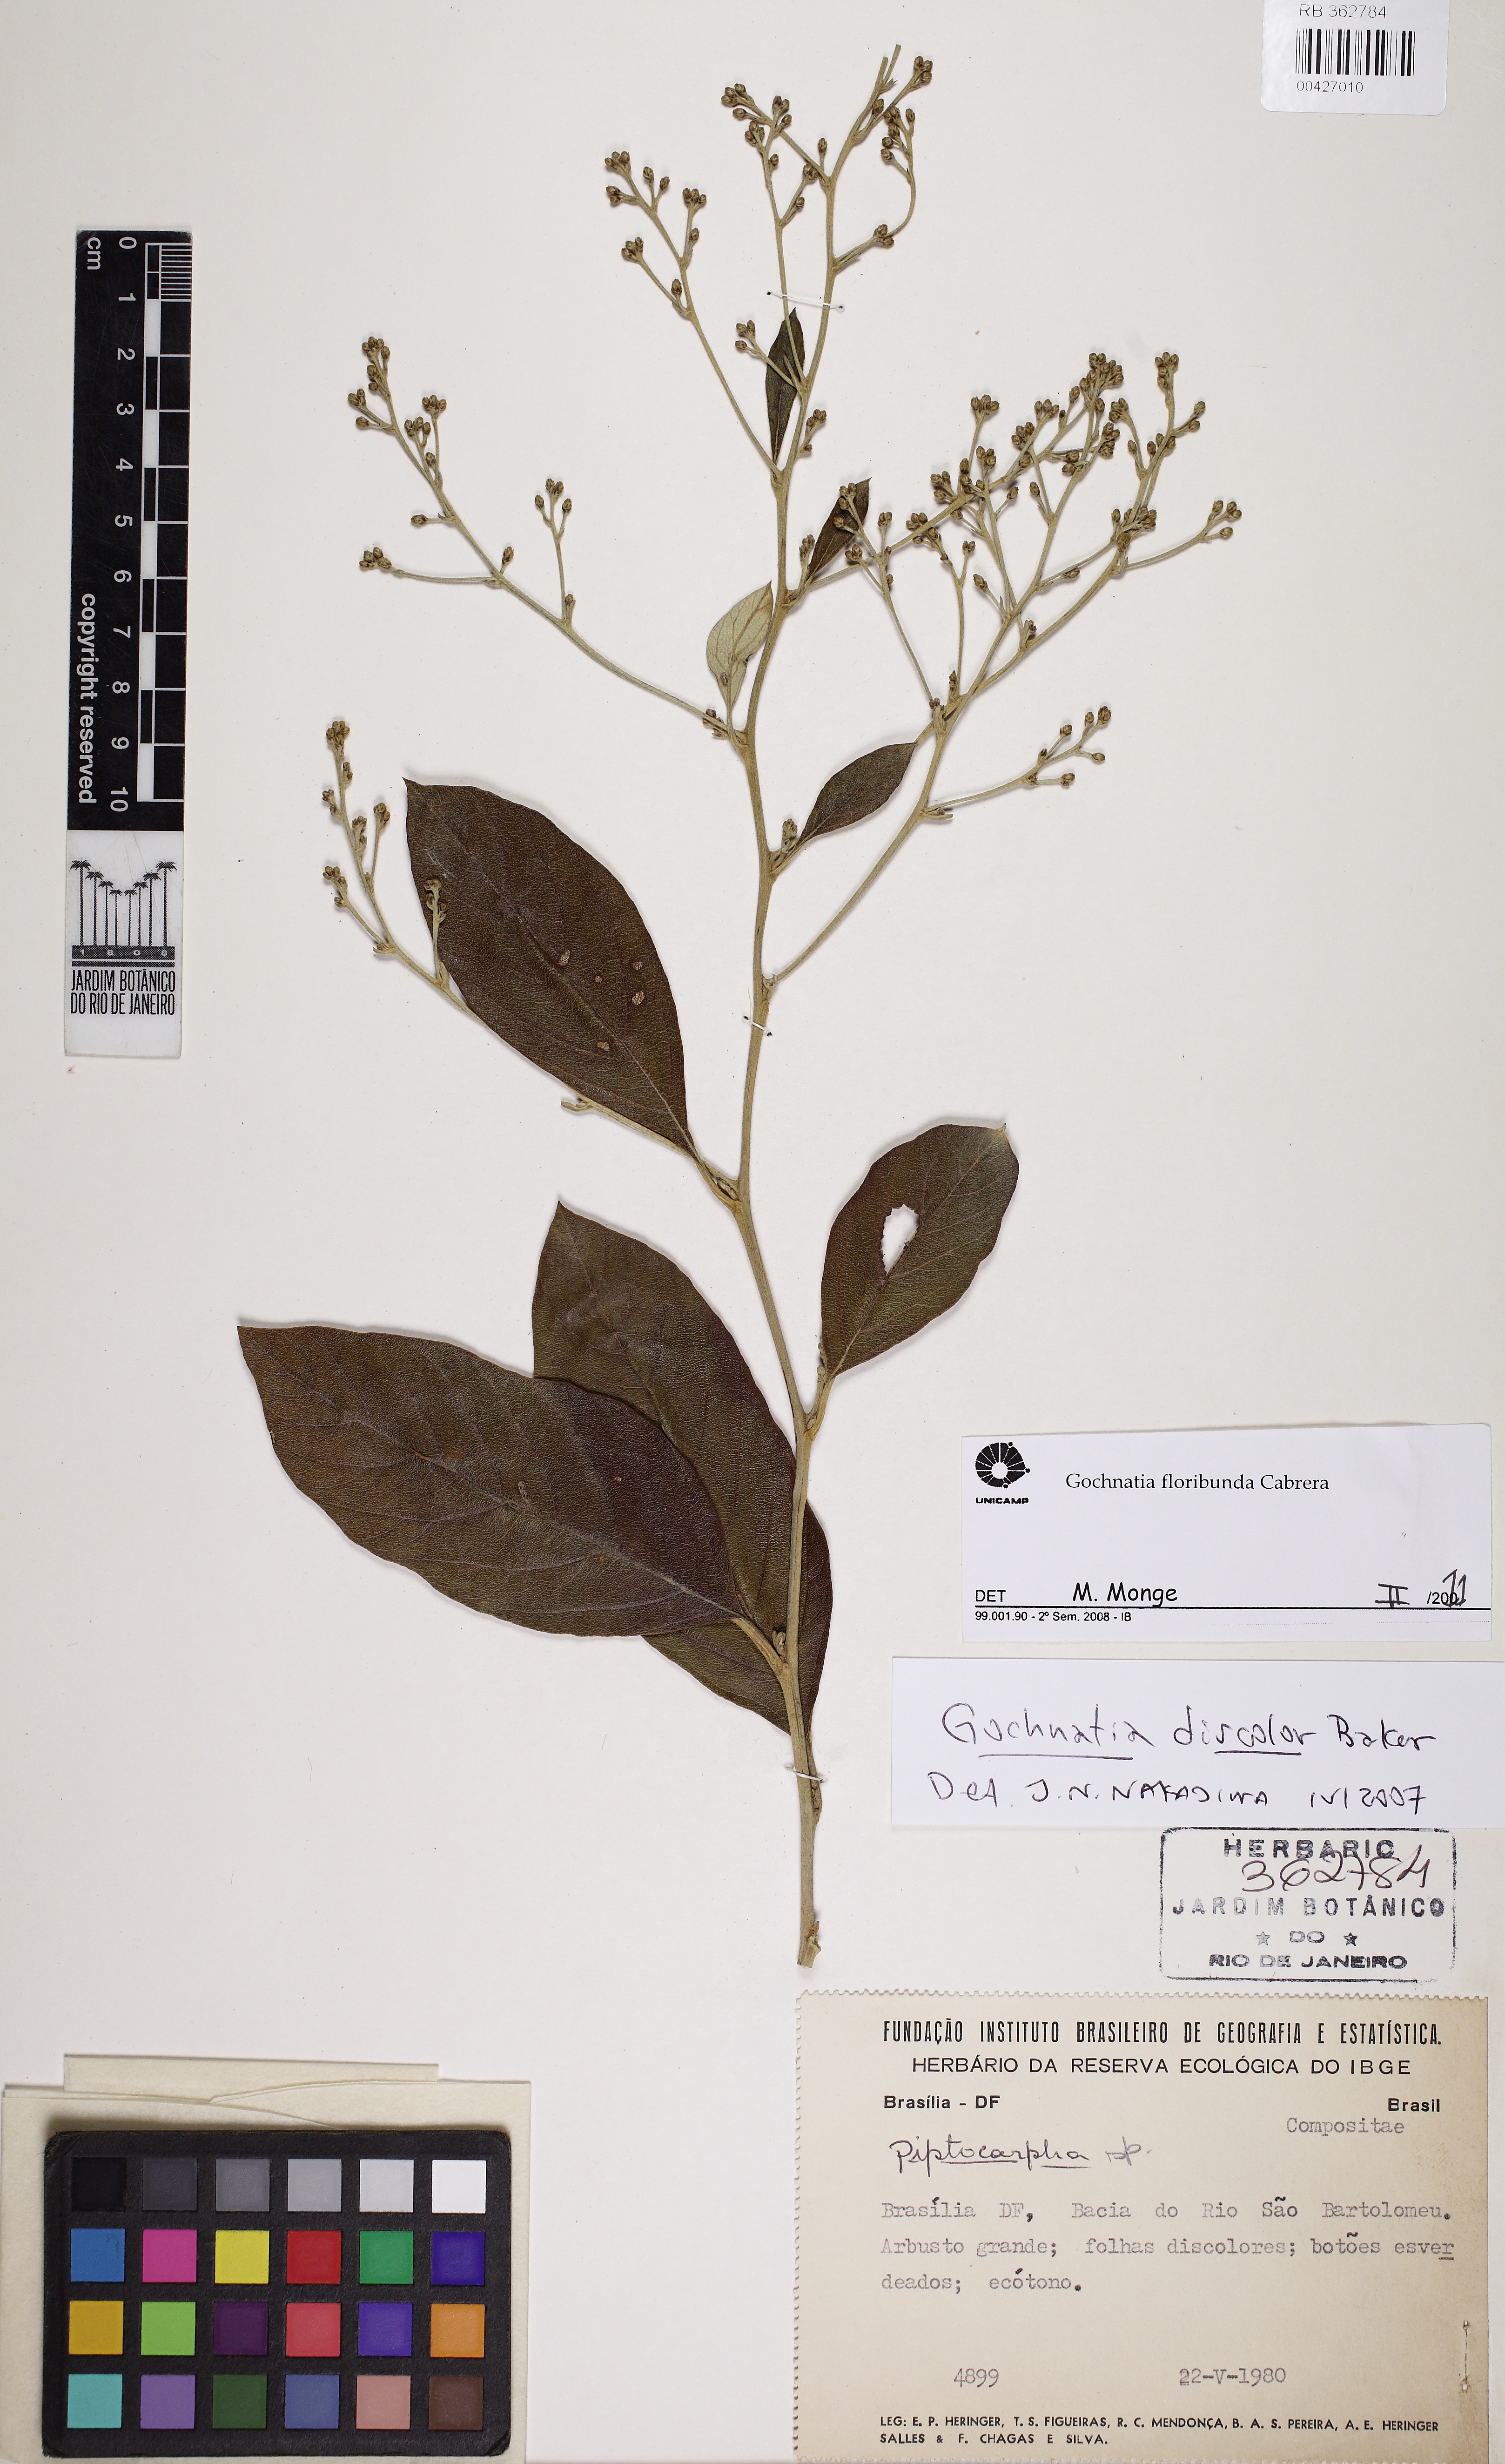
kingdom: Plantae
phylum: Tracheophyta
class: Magnoliopsida
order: Asterales
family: Asteraceae
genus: Moquiniastrum
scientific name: Moquiniastrum floribundum
